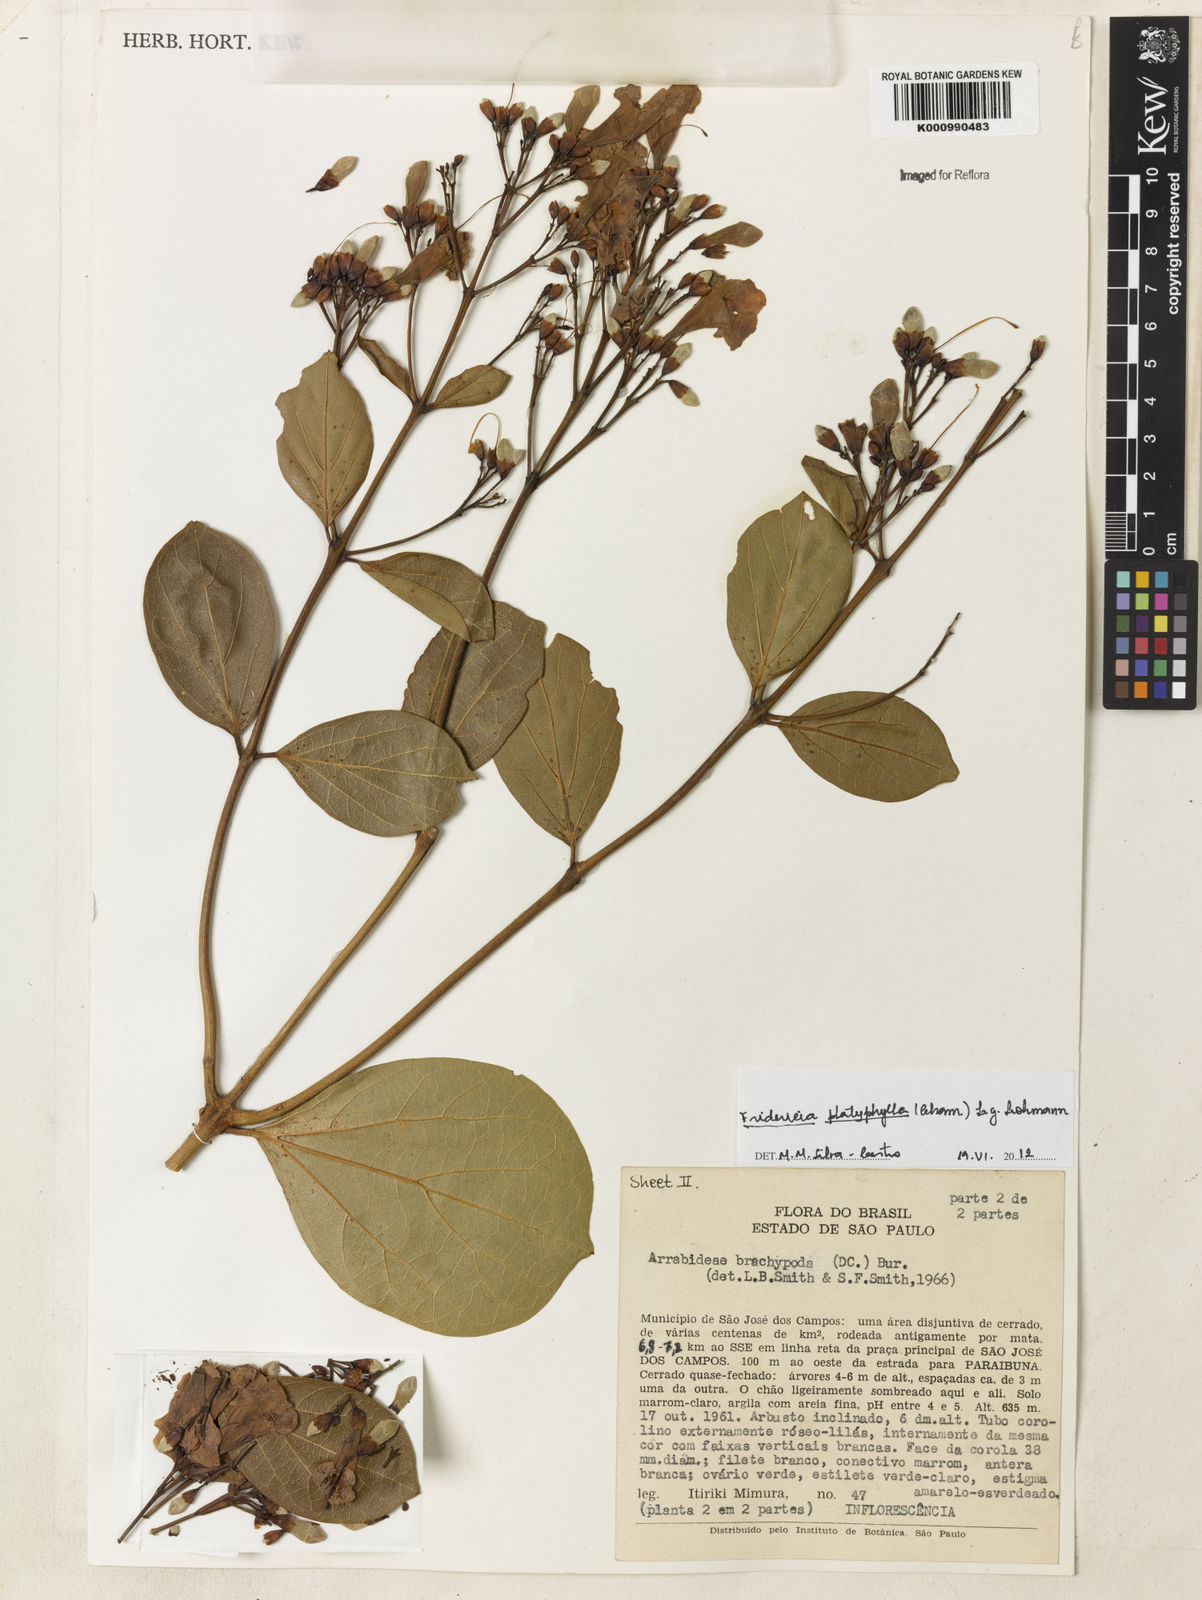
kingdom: Plantae
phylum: Tracheophyta
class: Magnoliopsida
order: Lamiales
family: Bignoniaceae
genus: Fridericia
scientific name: Fridericia platyphylla
